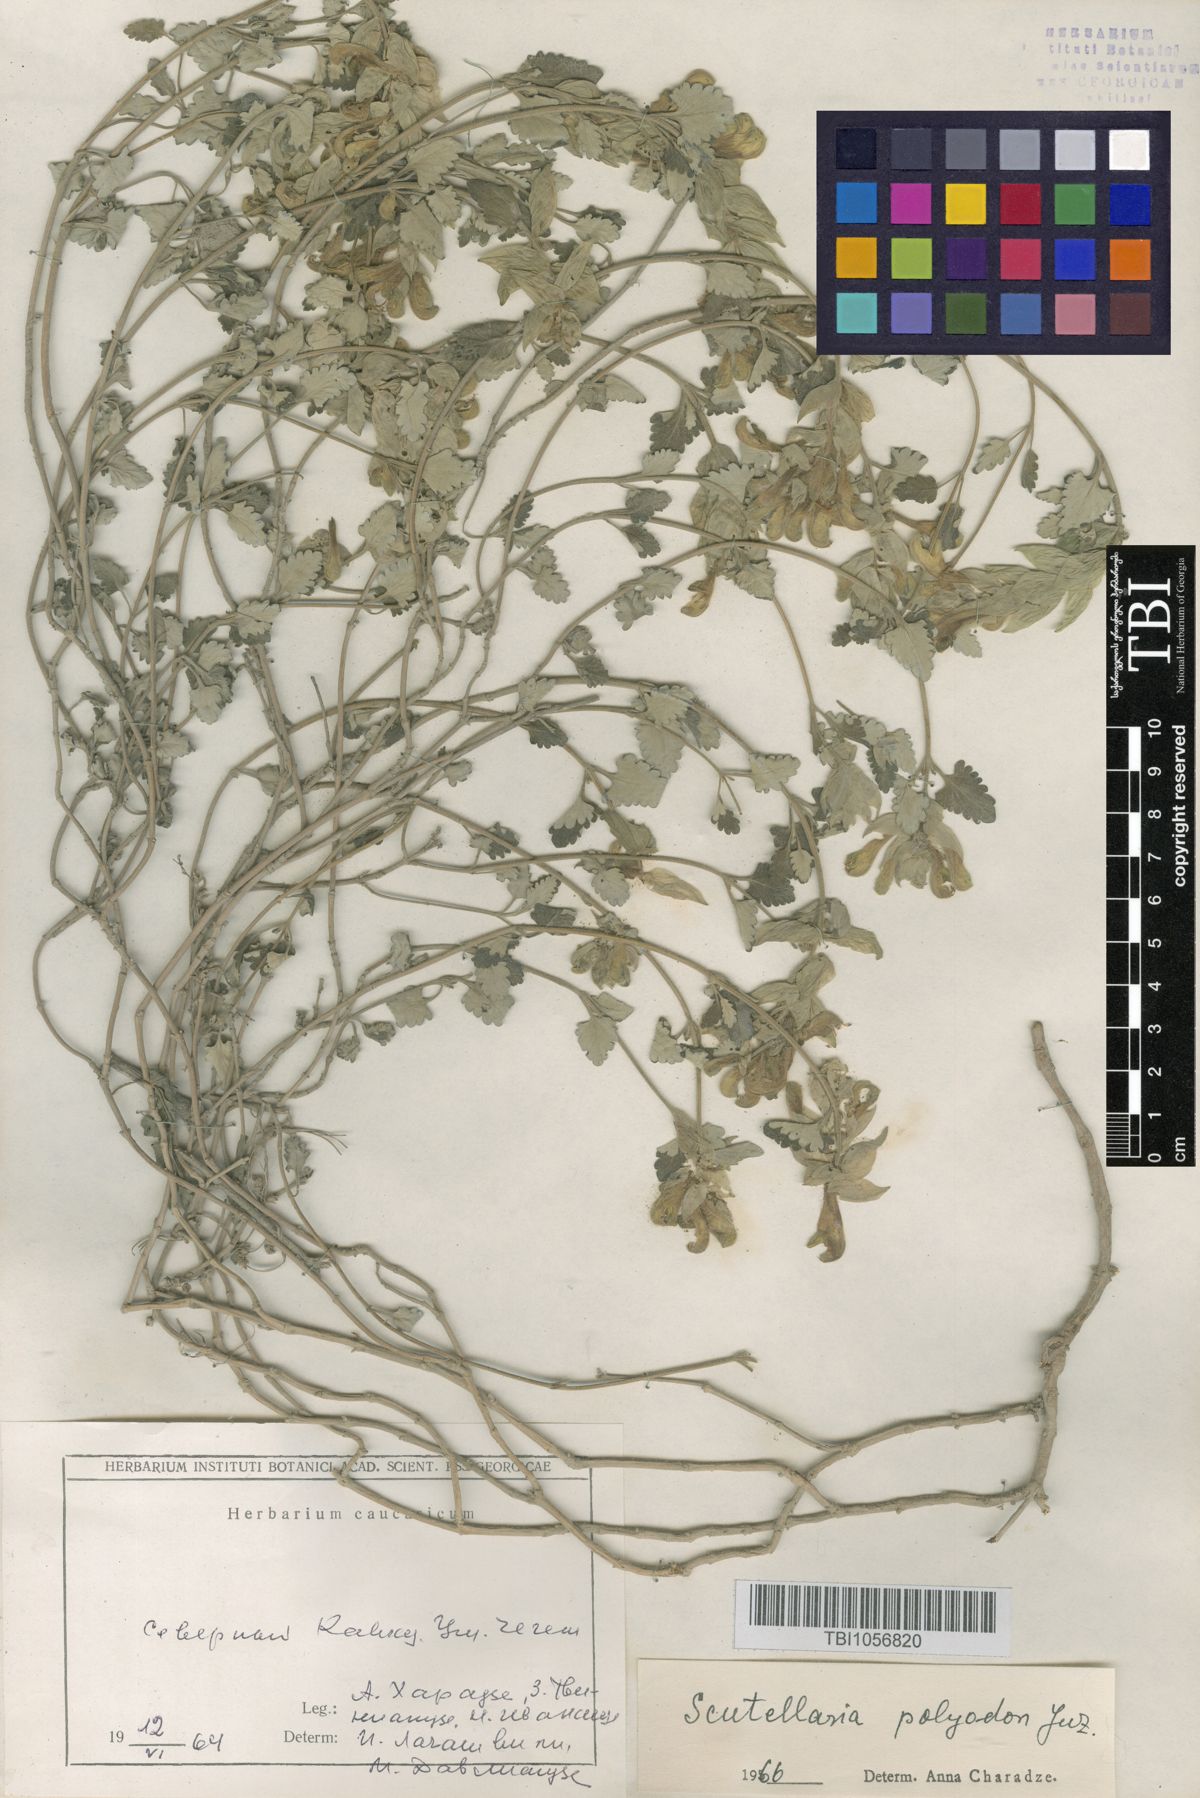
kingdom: Plantae
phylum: Tracheophyta
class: Magnoliopsida
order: Lamiales
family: Lamiaceae
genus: Scutellaria
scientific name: Scutellaria caucasica
